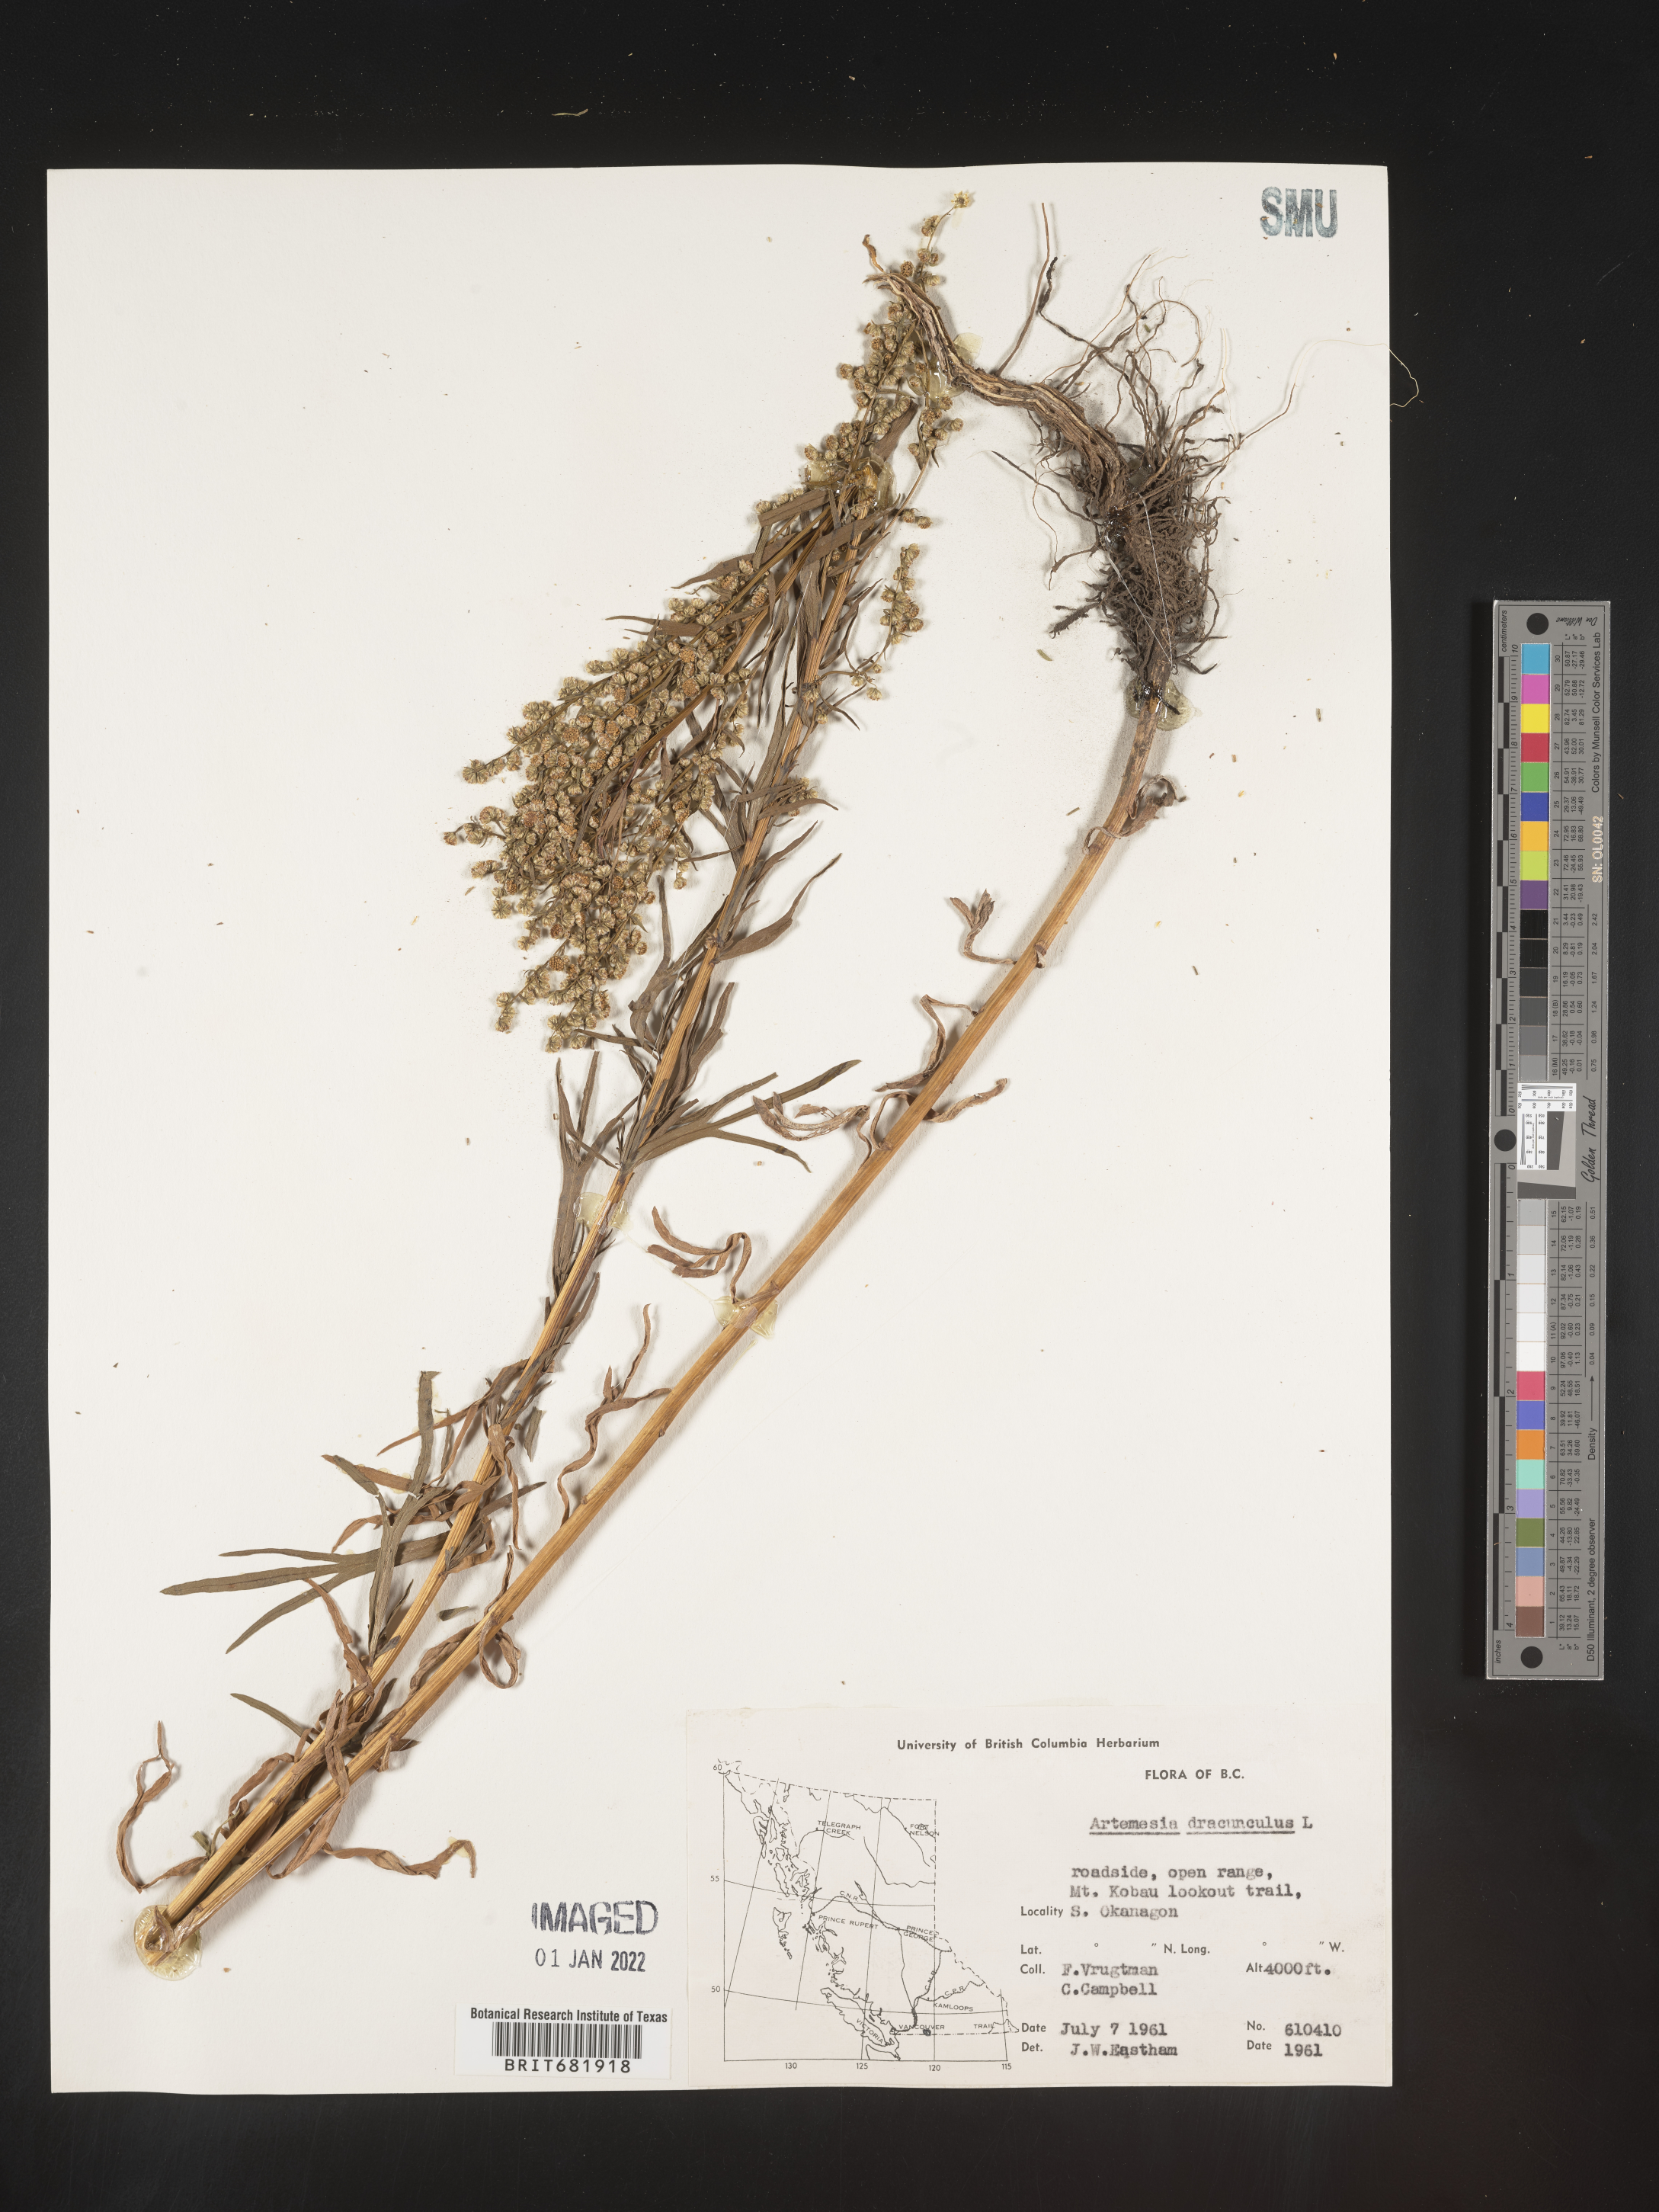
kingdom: Plantae
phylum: Tracheophyta
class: Magnoliopsida
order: Asterales
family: Asteraceae
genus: Artemisia
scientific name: Artemisia dracunculus
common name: Tarragon
